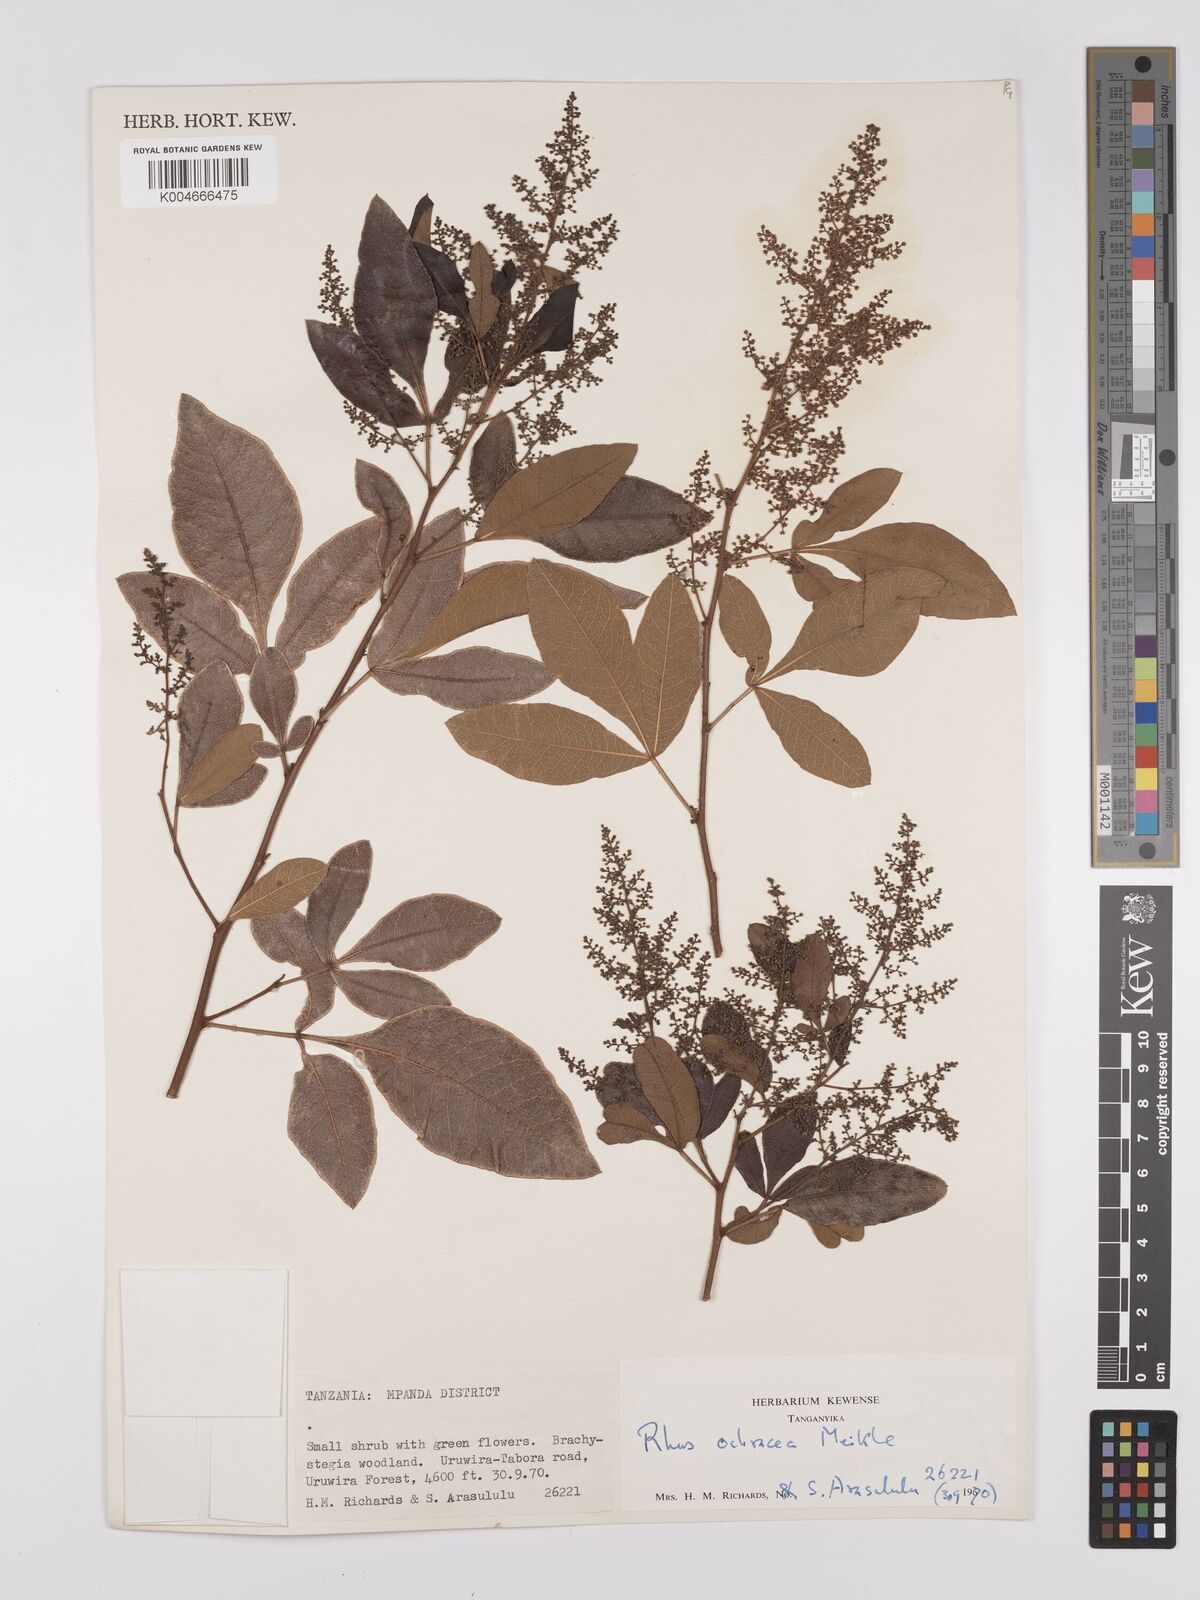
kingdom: Plantae
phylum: Tracheophyta
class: Magnoliopsida
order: Sapindales
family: Anacardiaceae
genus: Searsia
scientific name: Searsia ochracea
